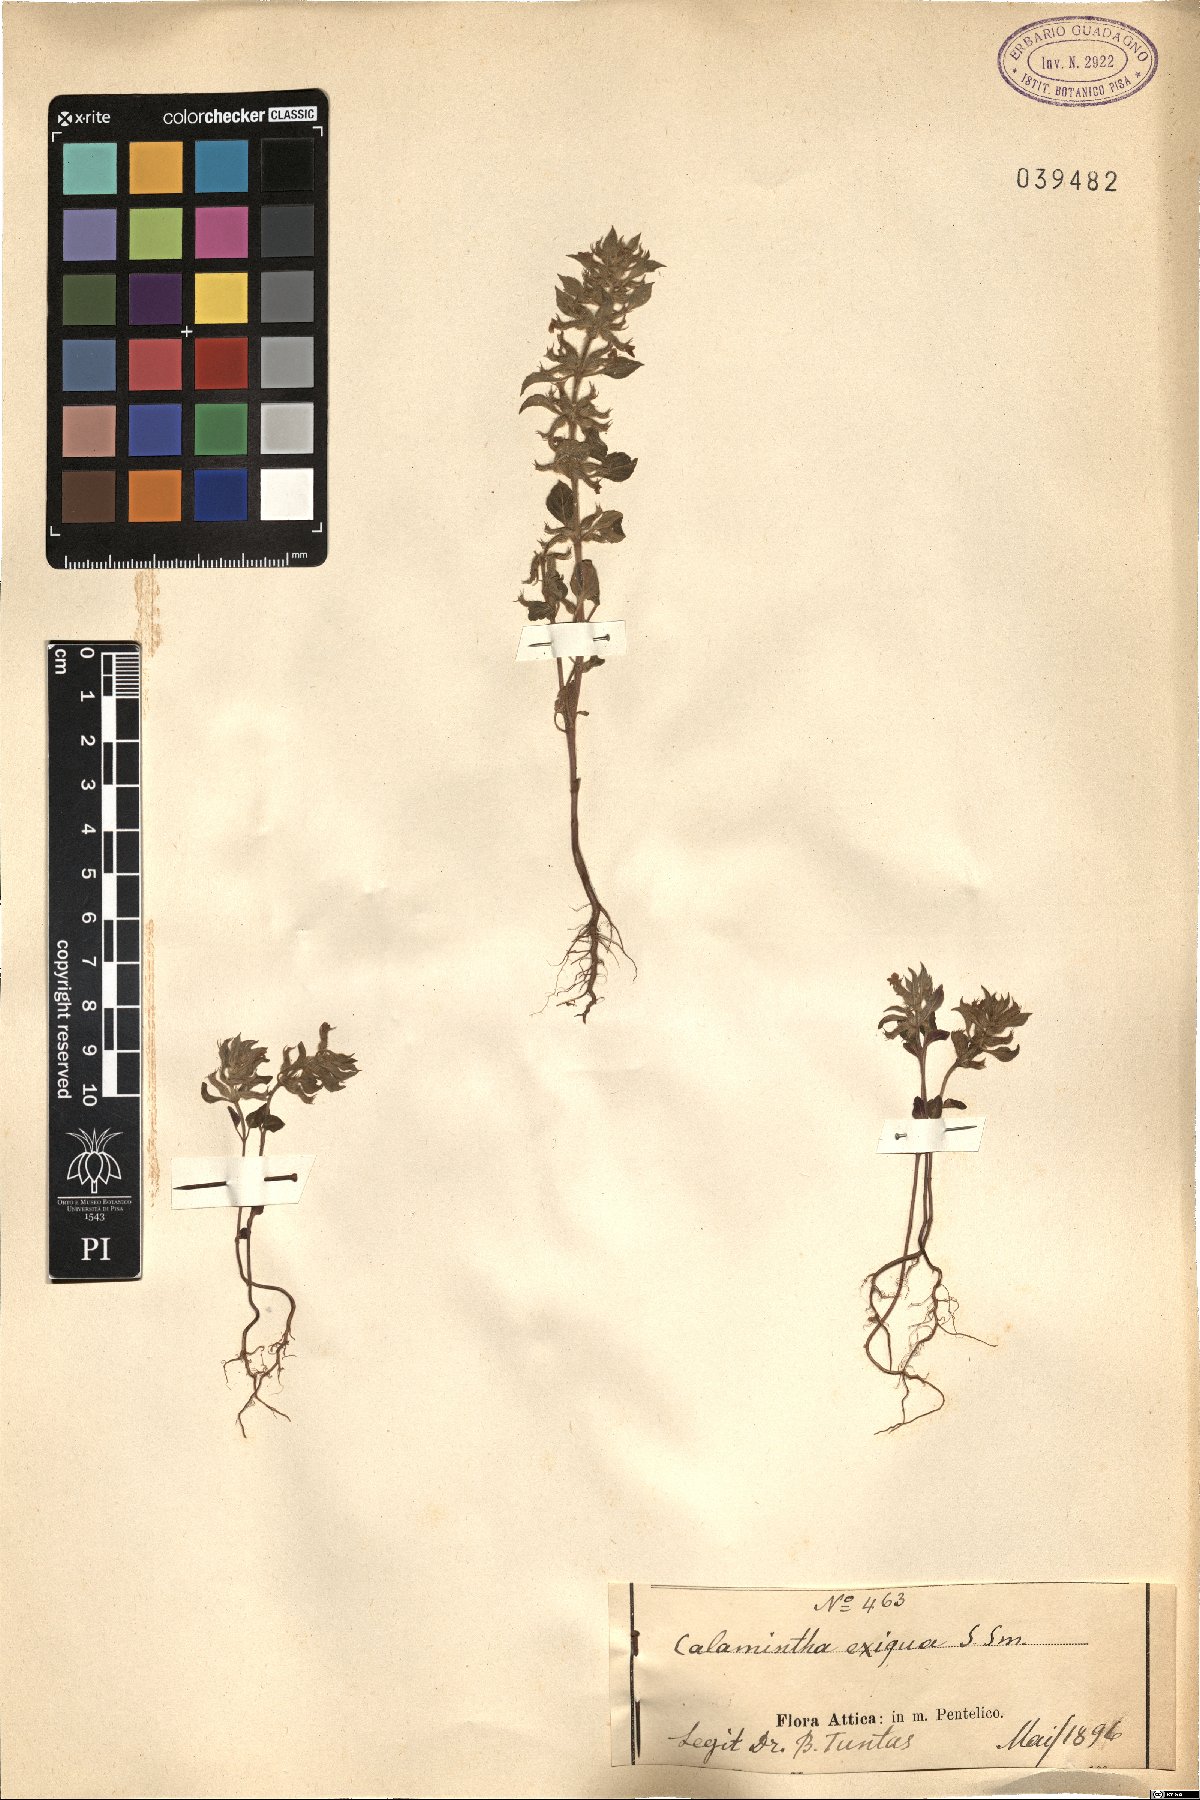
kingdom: Plantae
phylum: Tracheophyta
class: Magnoliopsida
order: Lamiales
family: Lamiaceae
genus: Clinopodium
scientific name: Clinopodium graveolens
